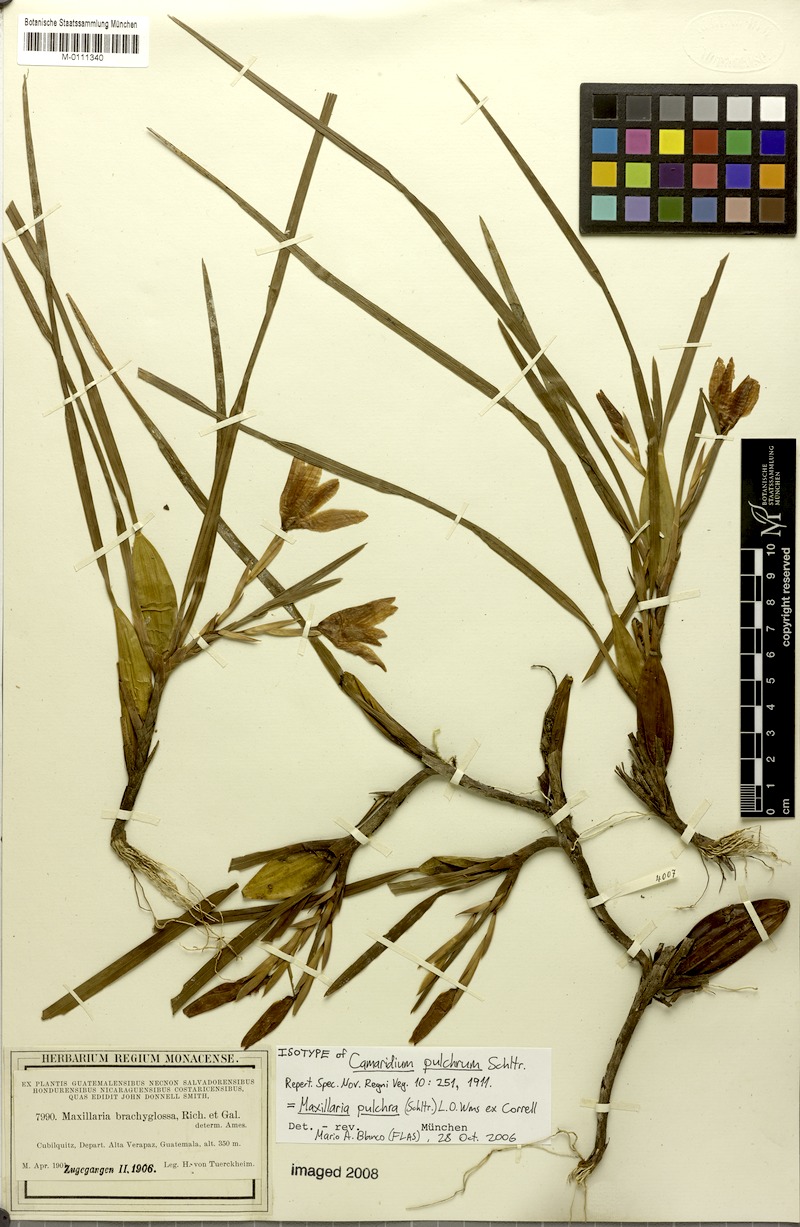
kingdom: Plantae
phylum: Tracheophyta
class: Liliopsida
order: Asparagales
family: Orchidaceae
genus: Maxillaria
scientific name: Maxillaria pulchra
